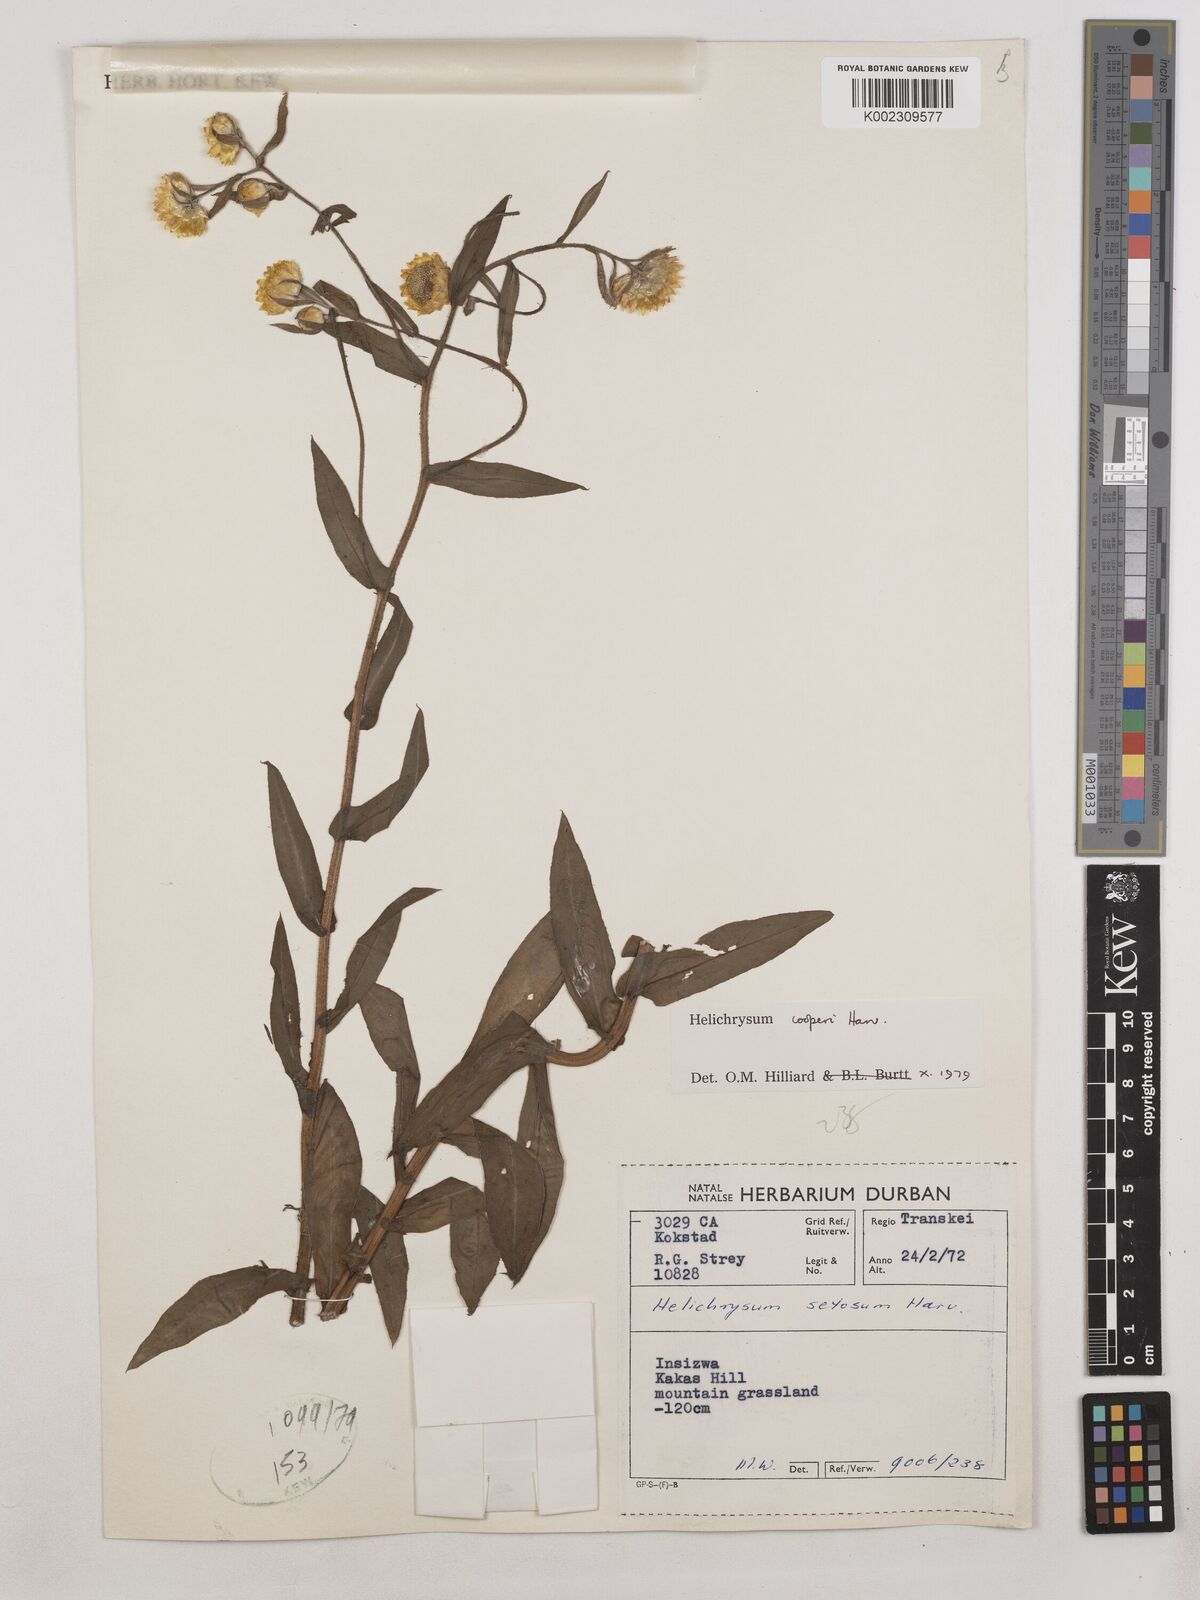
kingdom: Plantae
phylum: Tracheophyta
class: Magnoliopsida
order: Asterales
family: Asteraceae
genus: Helichrysum
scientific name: Helichrysum cooperi
